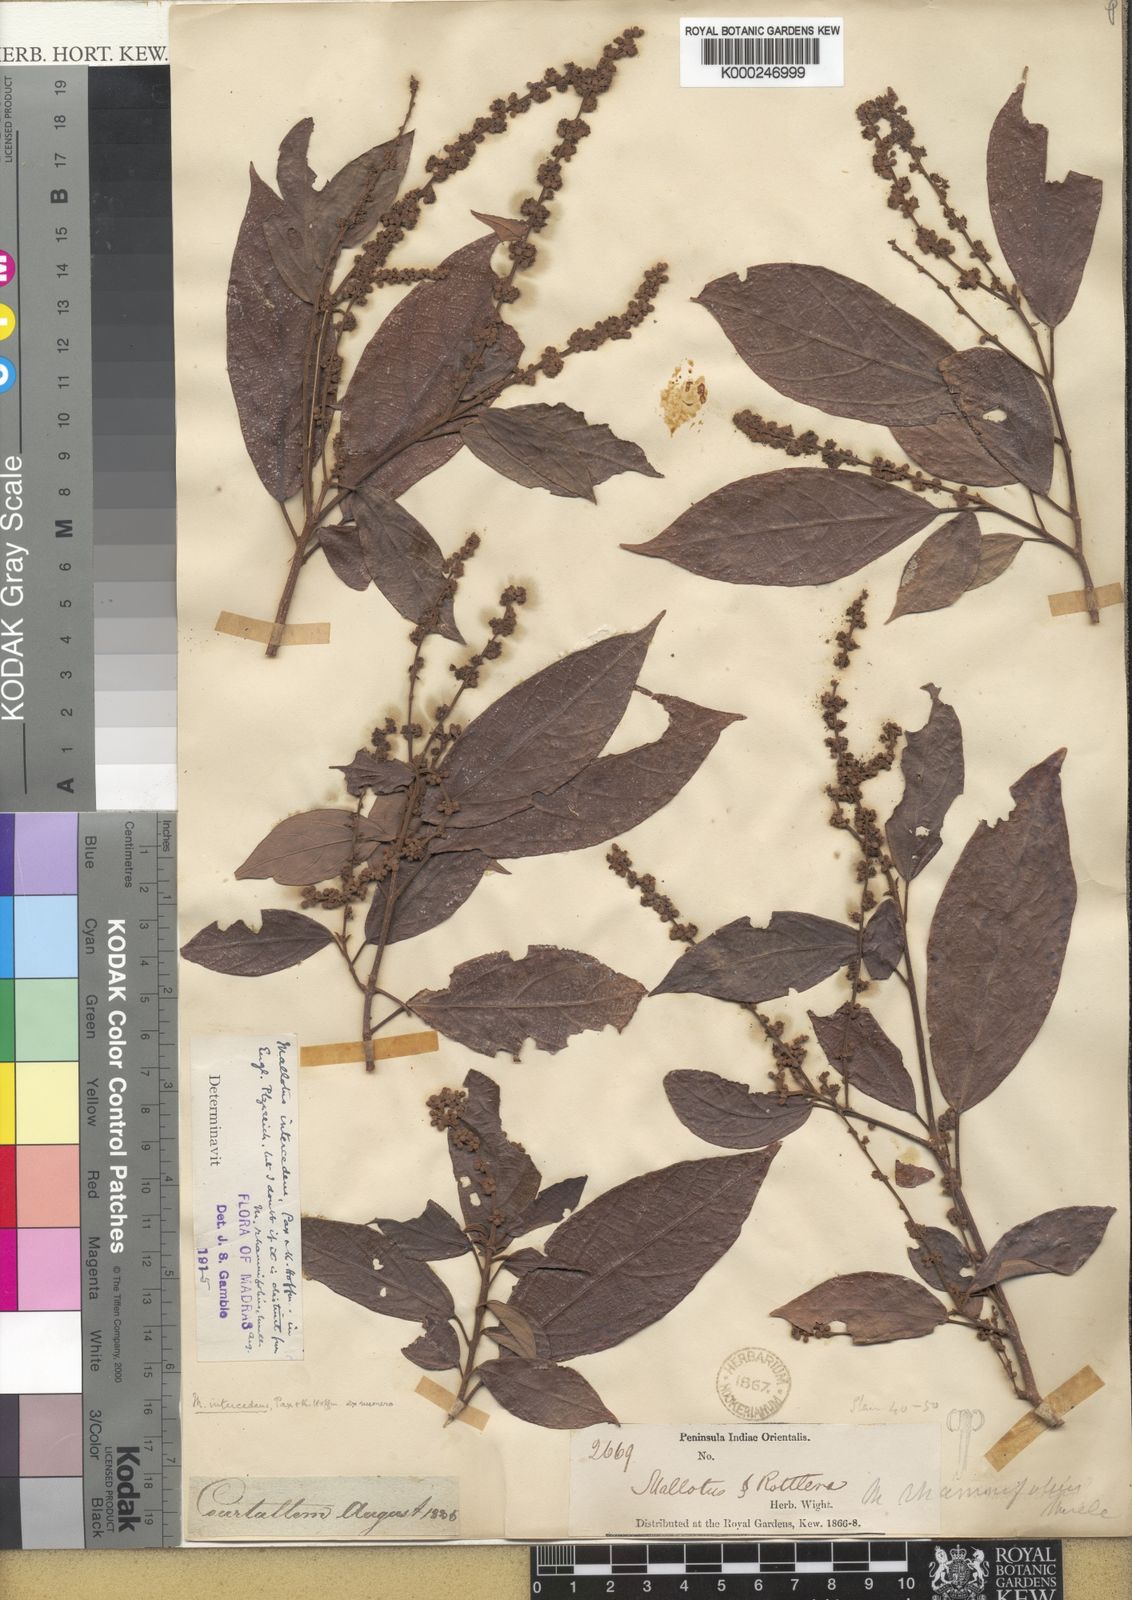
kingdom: Plantae
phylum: Tracheophyta
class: Magnoliopsida
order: Malpighiales
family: Euphorbiaceae
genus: Mallotus
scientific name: Mallotus intercedens
